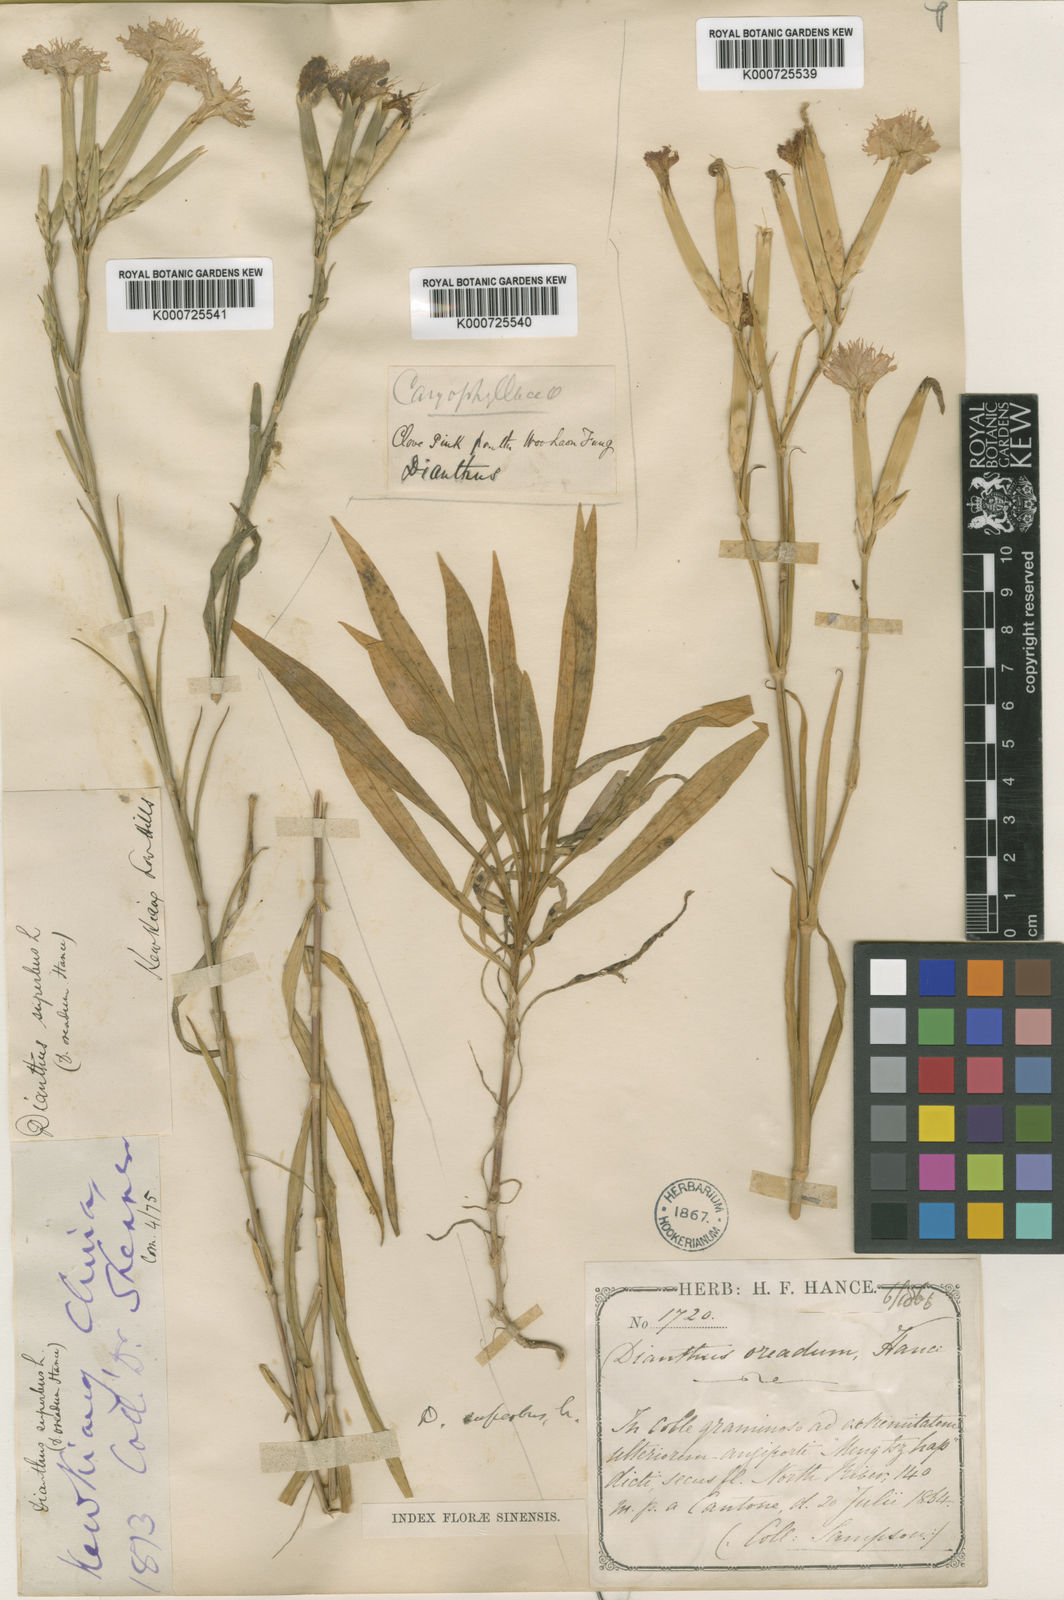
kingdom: Plantae
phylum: Tracheophyta
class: Magnoliopsida
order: Caryophyllales
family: Caryophyllaceae
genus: Dianthus
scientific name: Dianthus longicalyx
